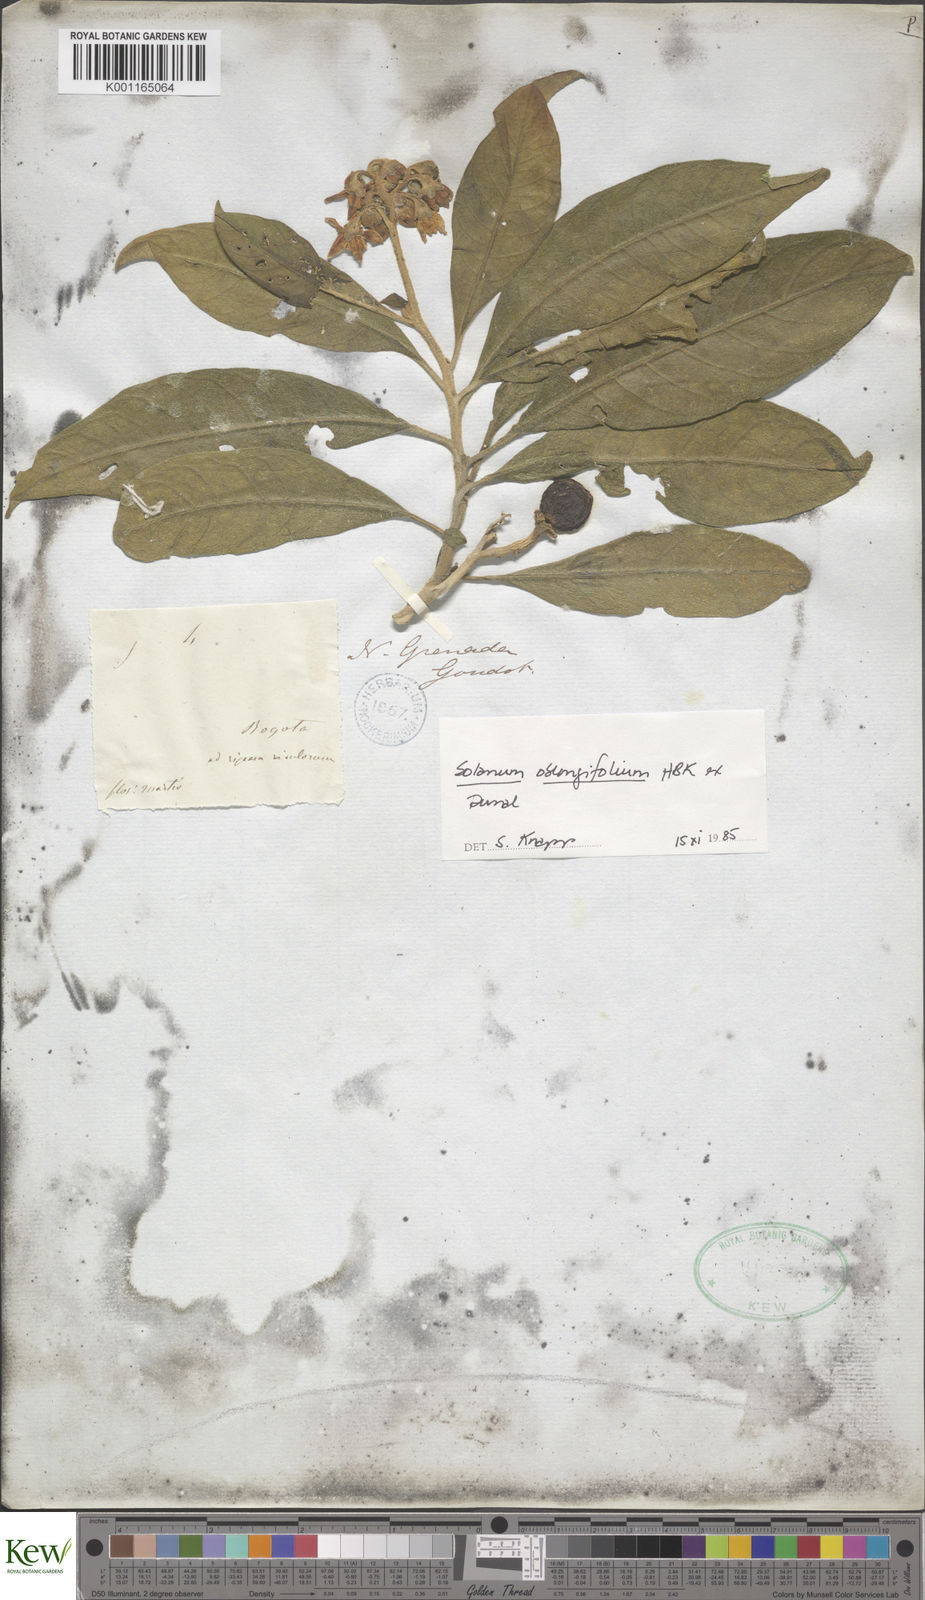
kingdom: Plantae
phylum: Tracheophyta
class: Magnoliopsida
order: Solanales
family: Solanaceae
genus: Solanum
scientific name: Solanum oblongifolium
